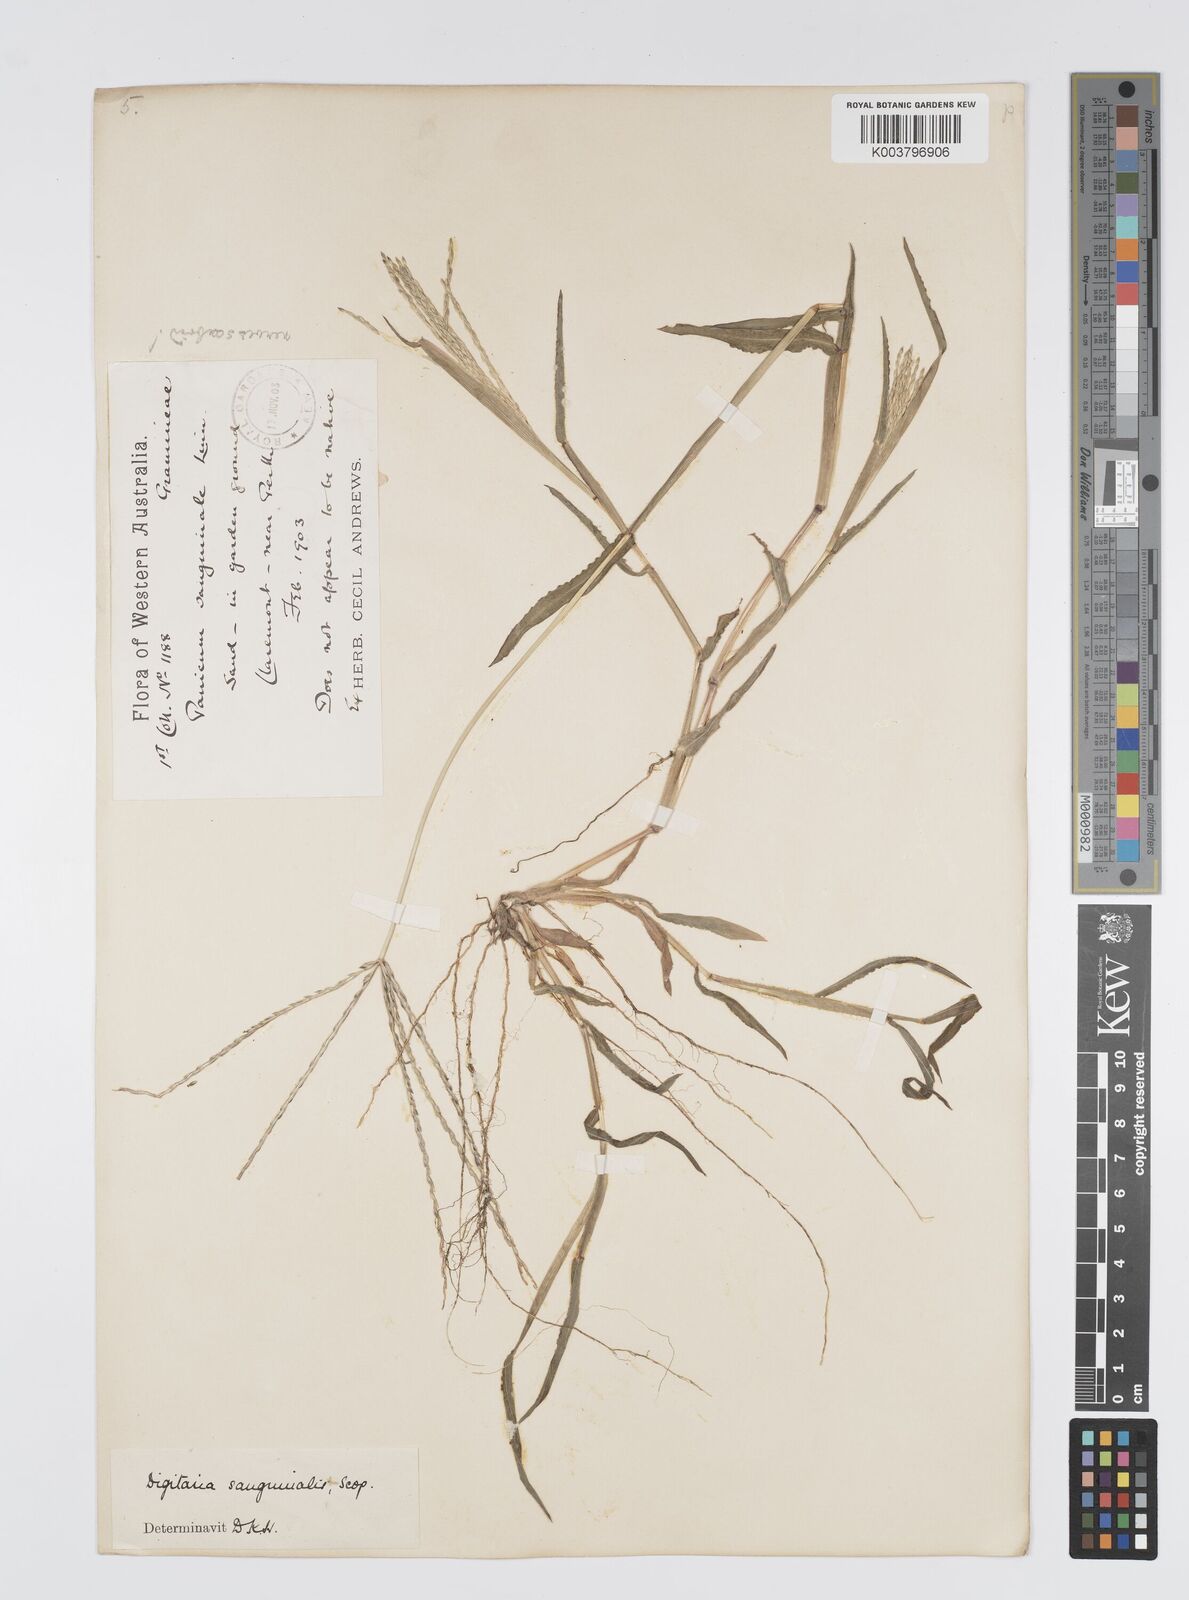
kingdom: Plantae
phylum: Tracheophyta
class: Liliopsida
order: Poales
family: Poaceae
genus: Digitaria
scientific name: Digitaria sanguinalis
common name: Hairy crabgrass
